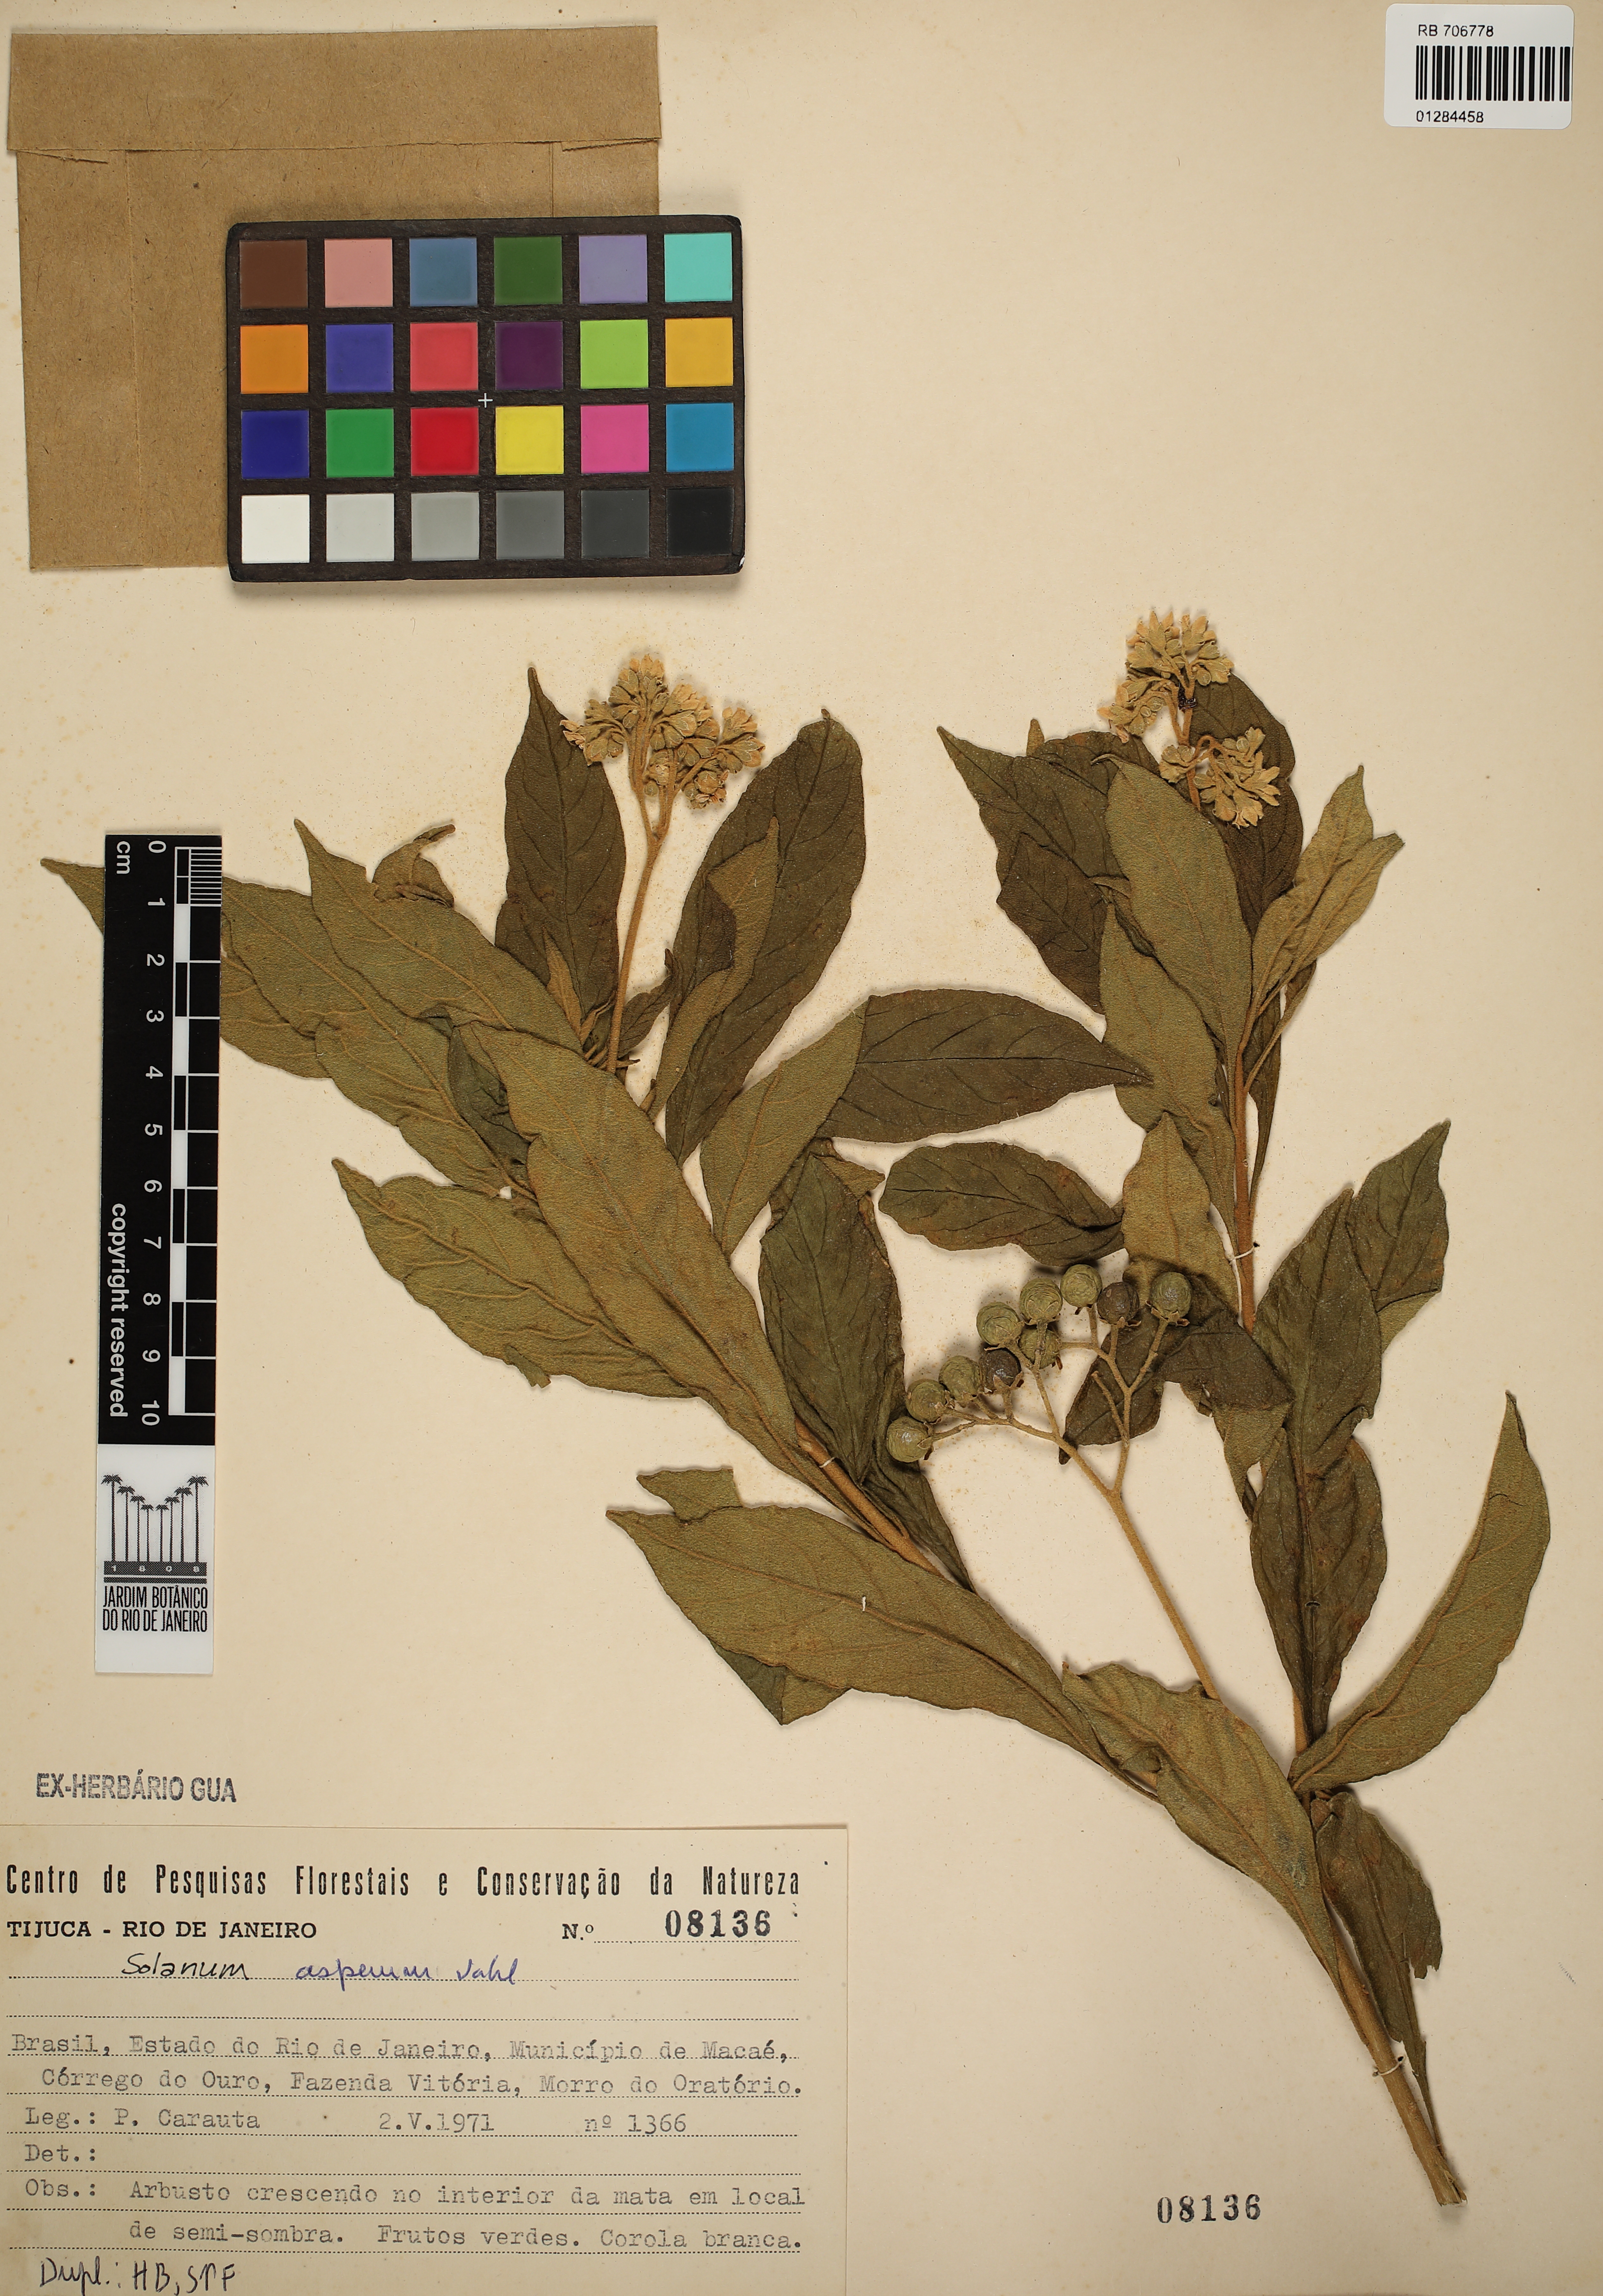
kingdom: Plantae
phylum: Tracheophyta
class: Magnoliopsida
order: Solanales
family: Solanaceae
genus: Solanum
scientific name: Solanum asperum
